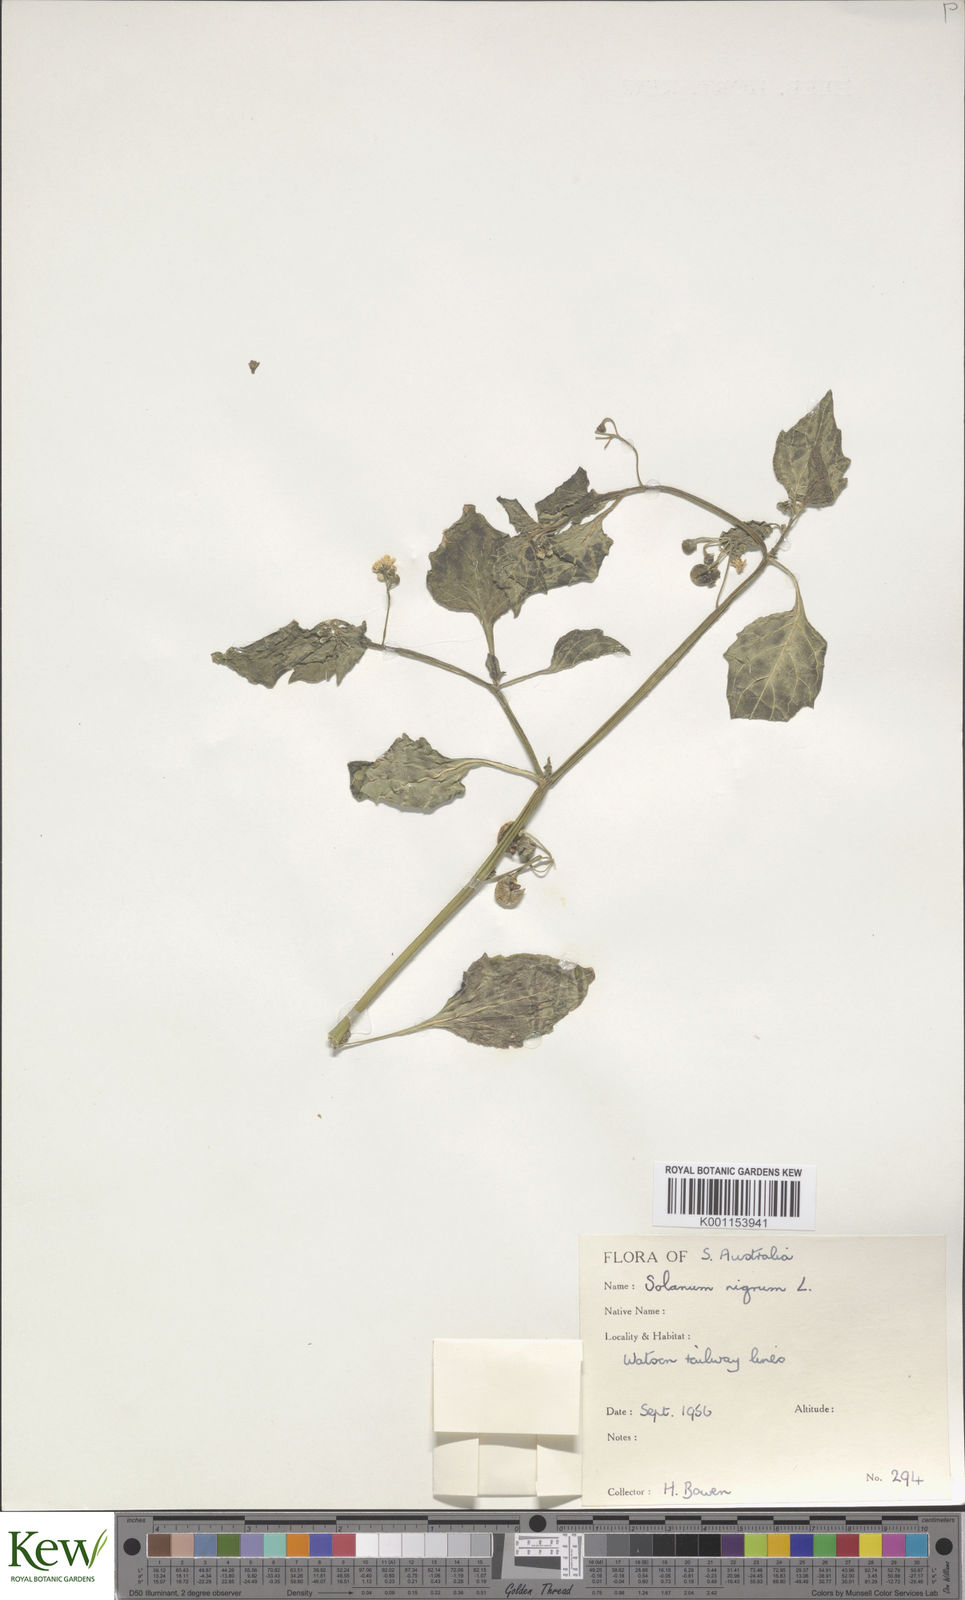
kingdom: Plantae
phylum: Tracheophyta
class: Magnoliopsida
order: Solanales
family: Solanaceae
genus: Solanum
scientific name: Solanum nigrum
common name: Black nightshade
